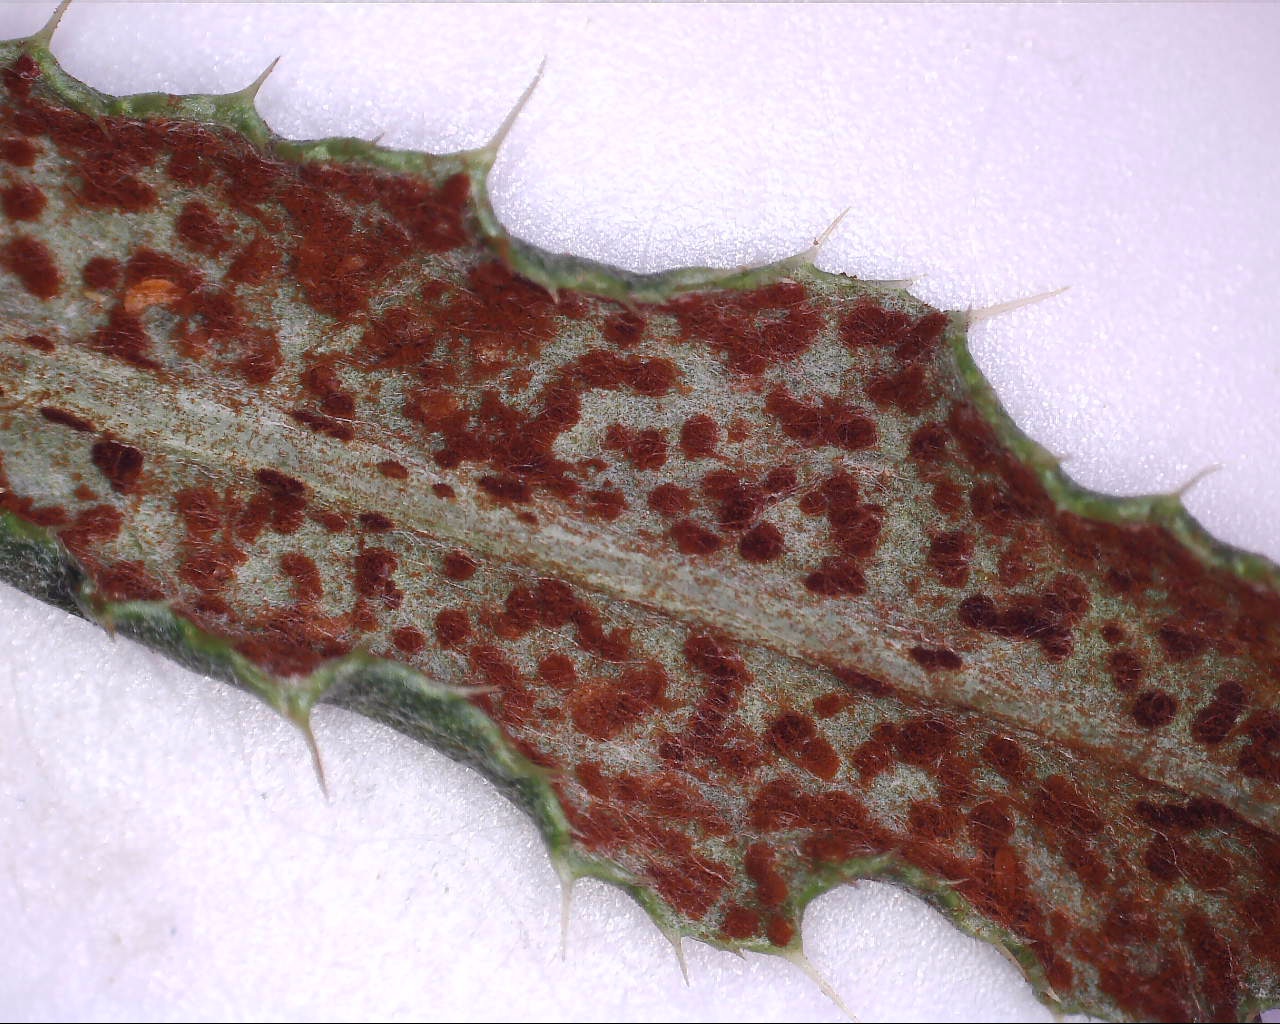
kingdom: Fungi
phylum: Basidiomycota
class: Pucciniomycetes
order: Pucciniales
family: Pucciniaceae
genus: Puccinia
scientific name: Puccinia suaveolens
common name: tidsel-tvecellerust
